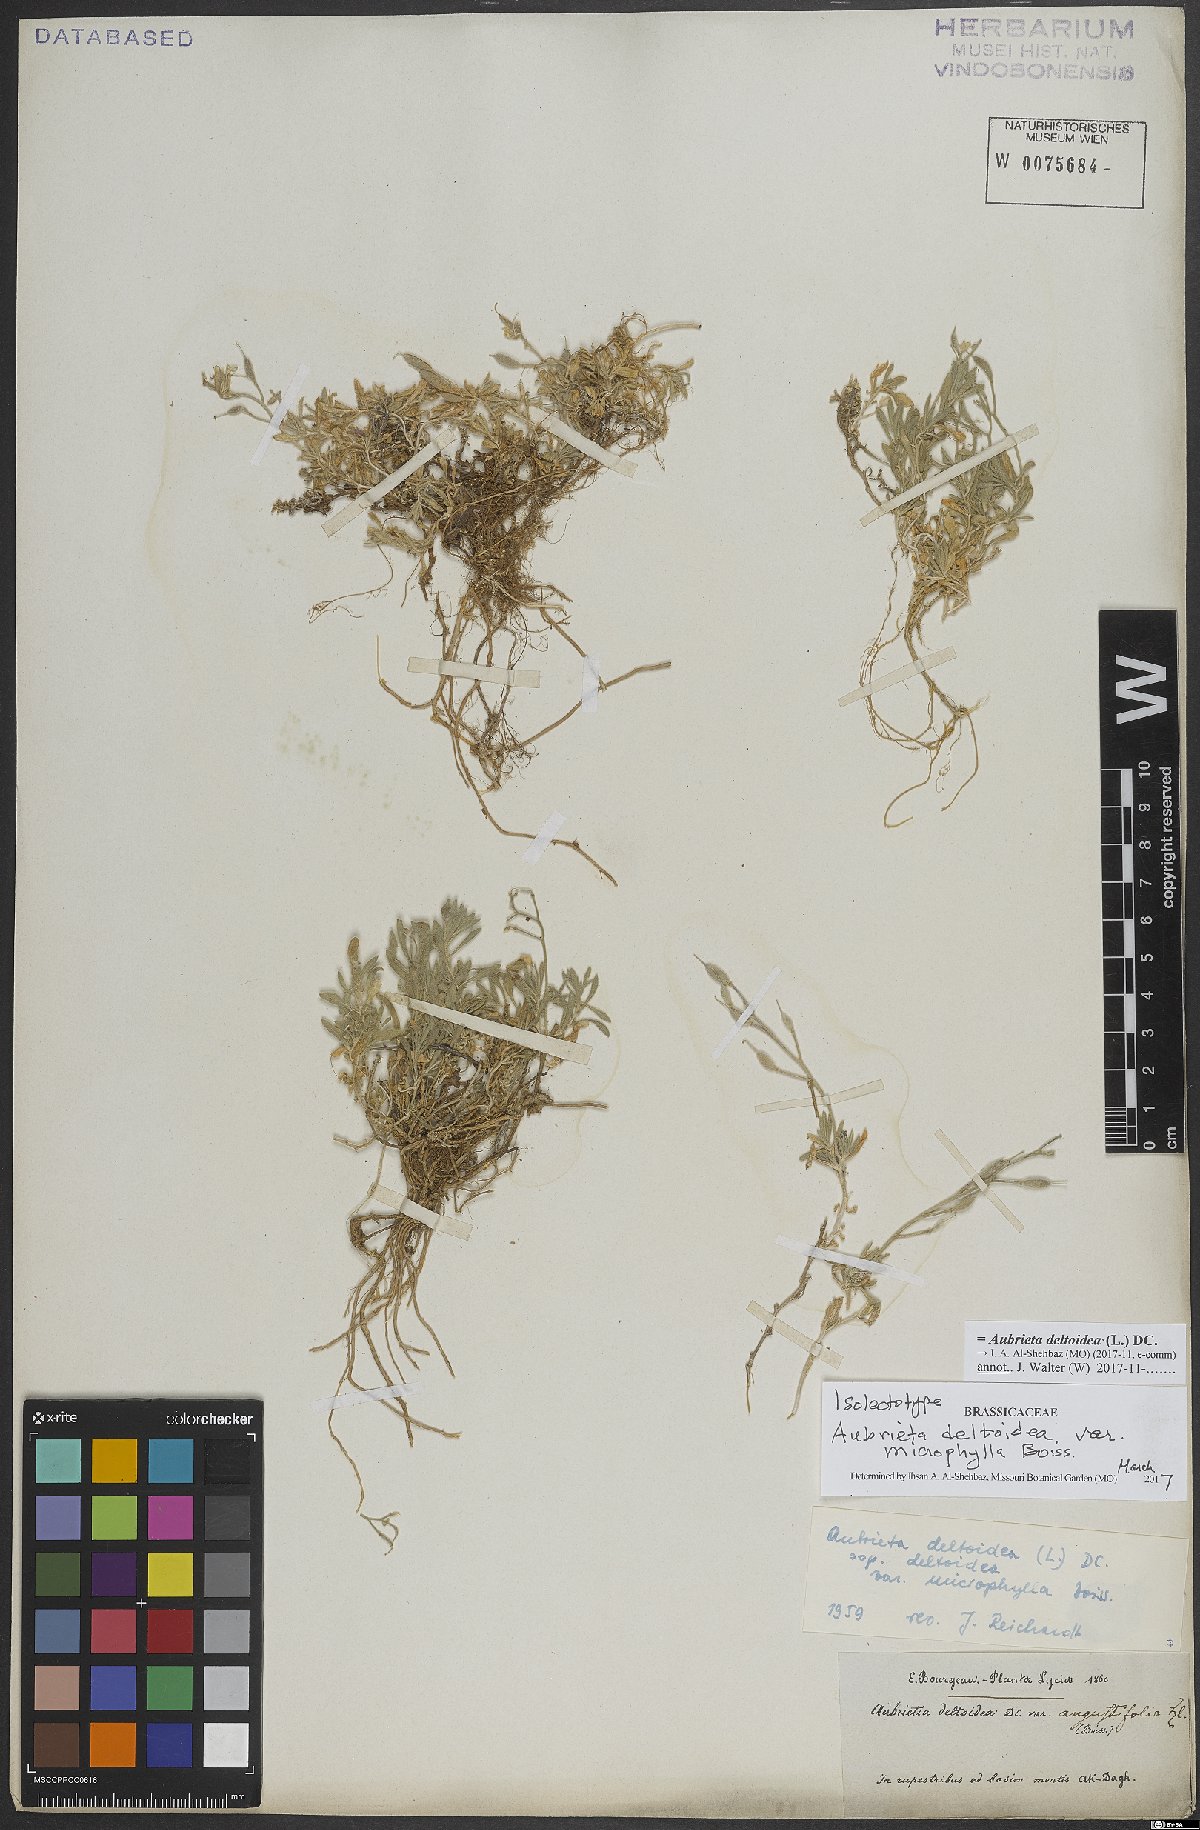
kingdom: Plantae
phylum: Tracheophyta
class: Magnoliopsida
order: Brassicales
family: Brassicaceae
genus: Aubrieta
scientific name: Aubrieta deltoidea
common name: Aubretia
